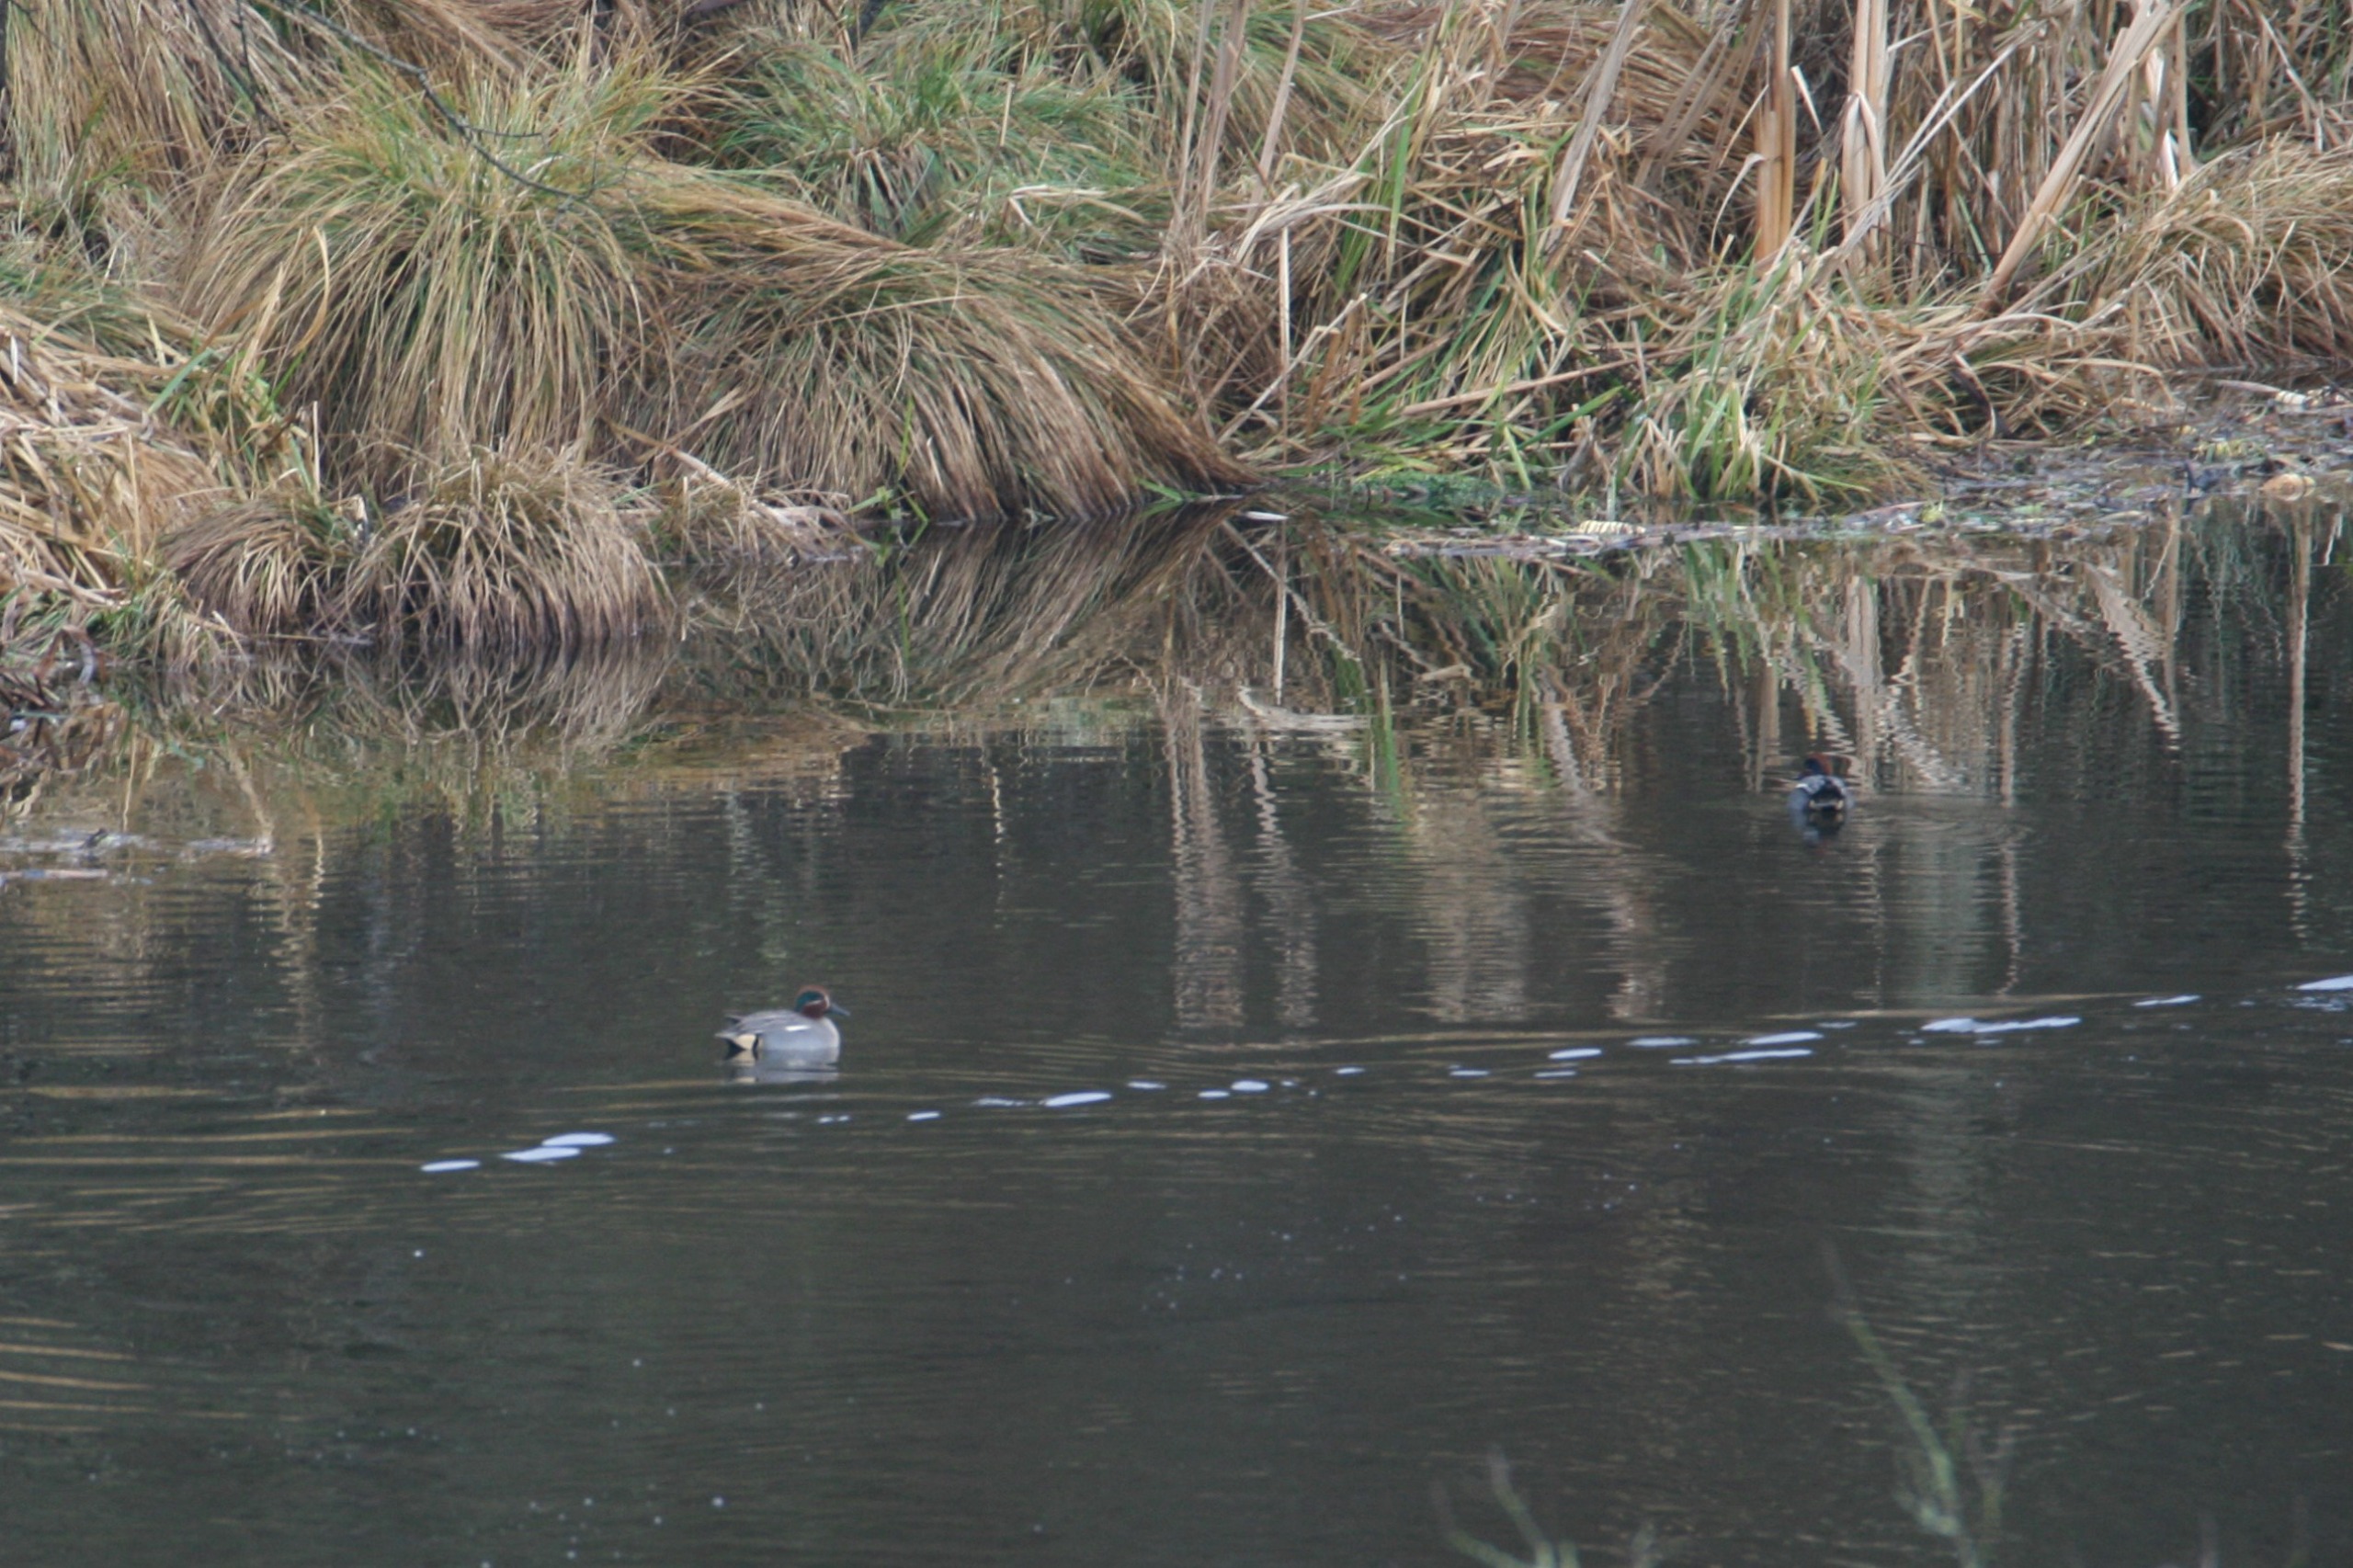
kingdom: Animalia
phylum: Chordata
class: Aves
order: Anseriformes
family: Anatidae
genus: Anas
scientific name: Anas crecca
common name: Krikand
